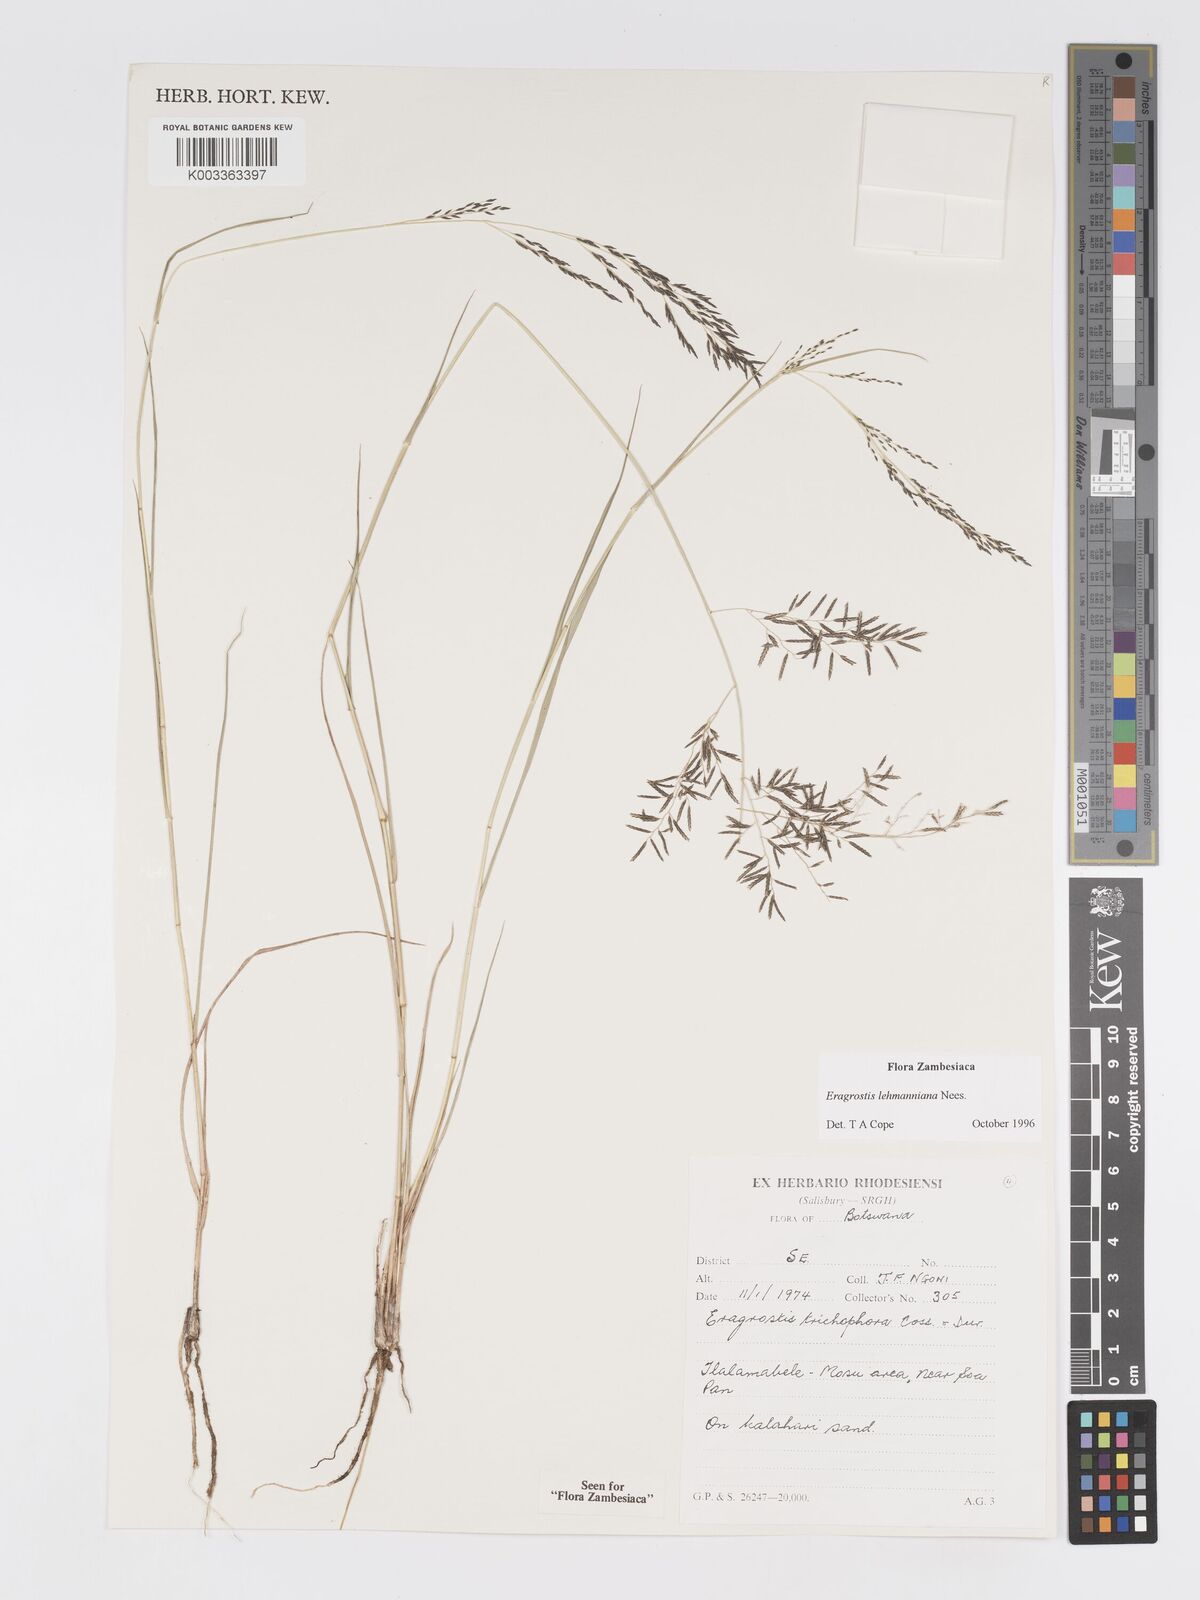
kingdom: Plantae
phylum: Tracheophyta
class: Liliopsida
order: Poales
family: Poaceae
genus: Eragrostis
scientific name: Eragrostis lehmanniana
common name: Lehmann lovegrass
